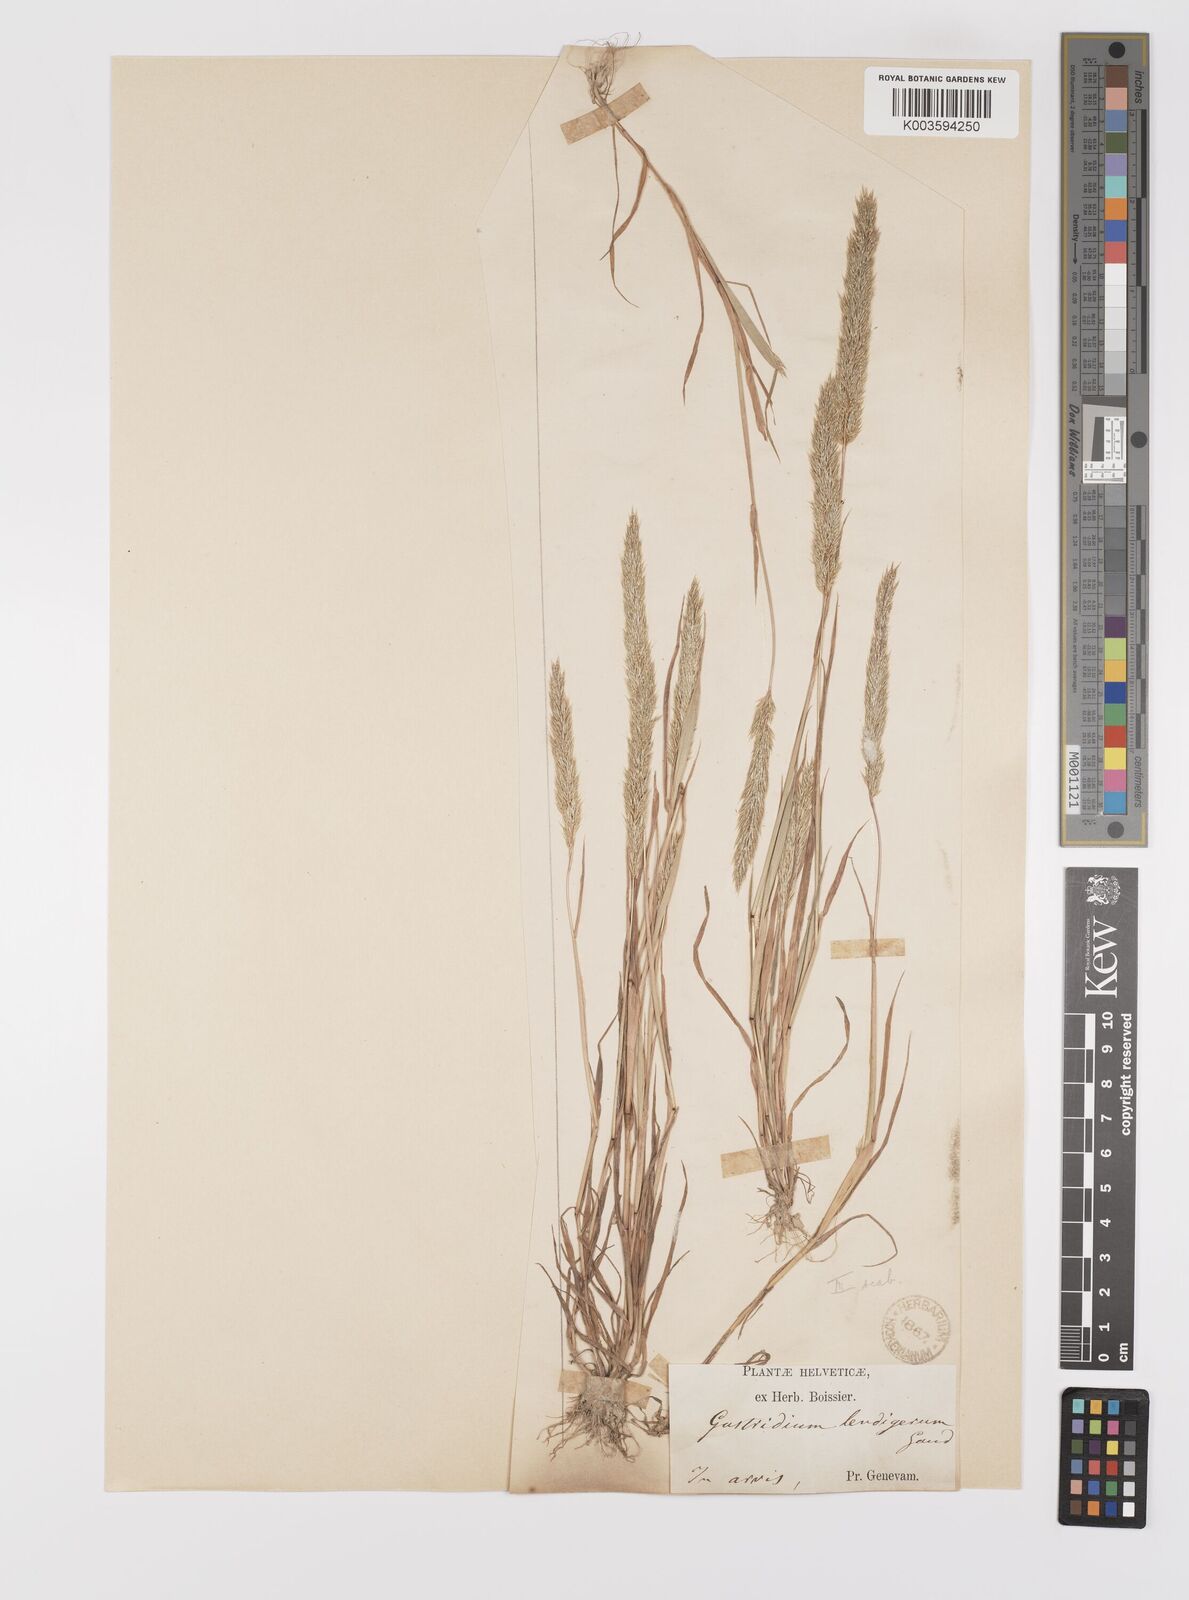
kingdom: Plantae
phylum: Tracheophyta
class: Liliopsida
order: Poales
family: Poaceae
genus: Gastridium
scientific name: Gastridium ventricosum
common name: Nit-grass
